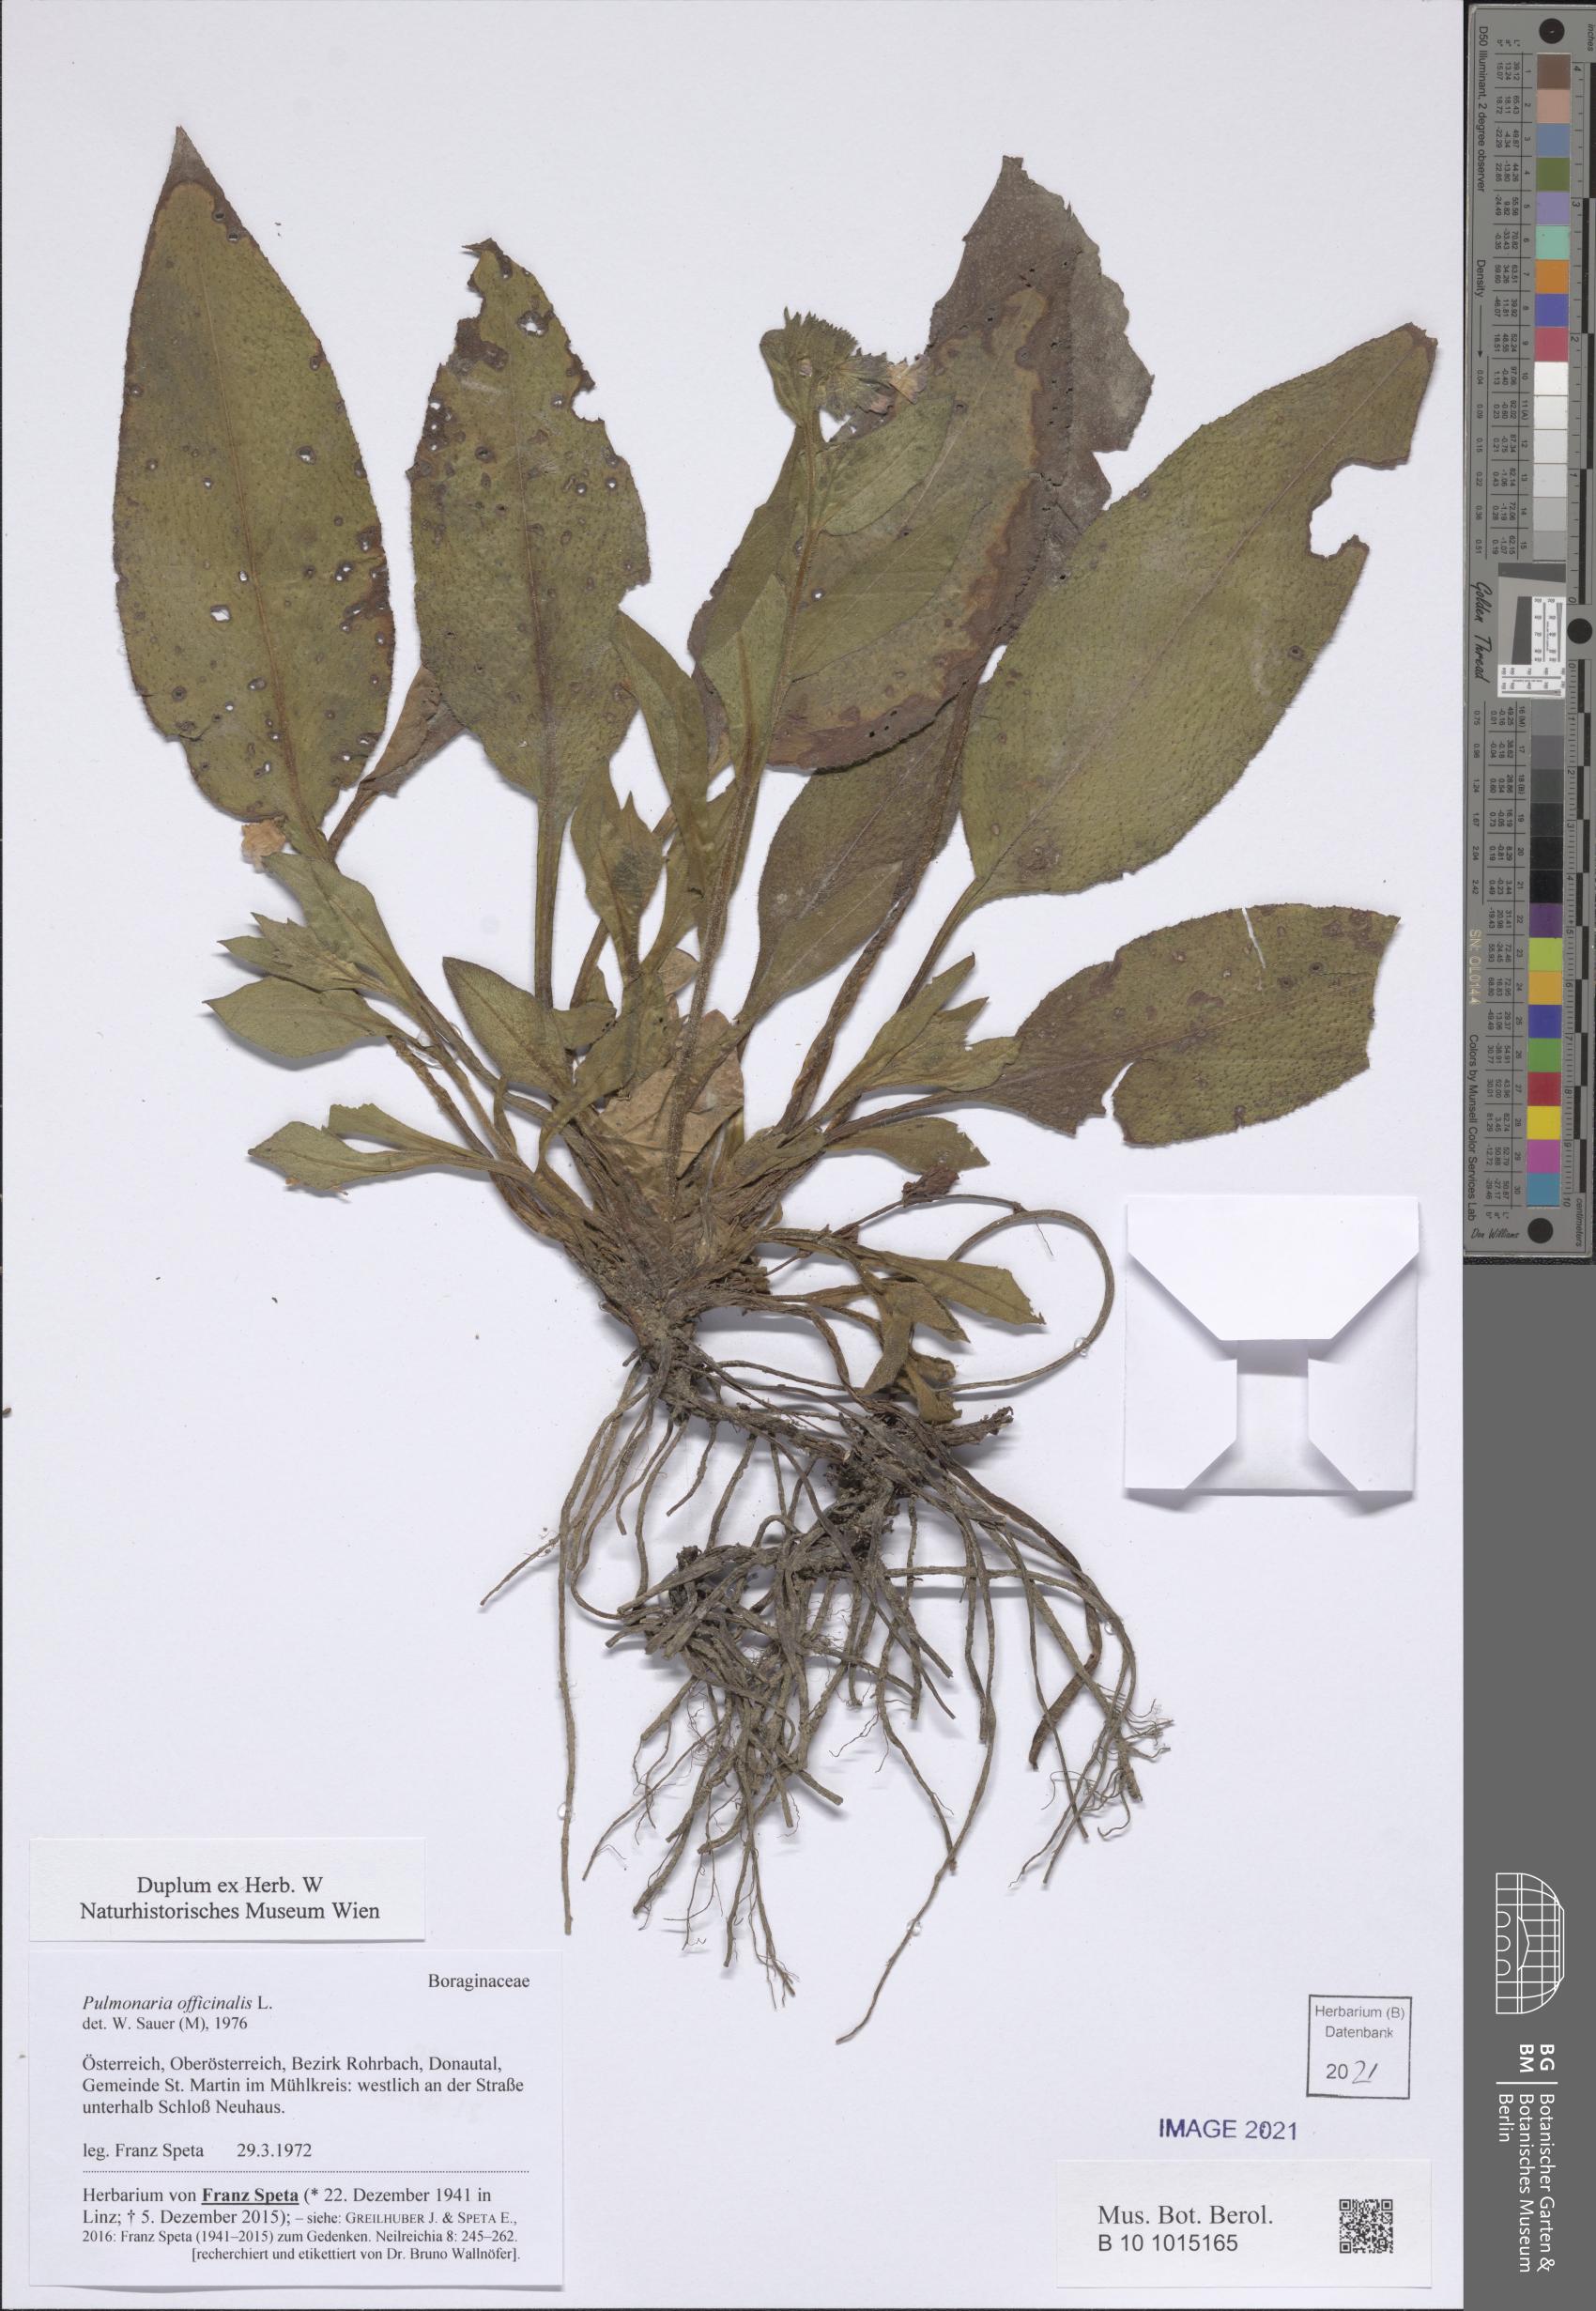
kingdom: Plantae
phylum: Tracheophyta
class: Magnoliopsida
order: Boraginales
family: Boraginaceae
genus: Pulmonaria
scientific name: Pulmonaria officinalis
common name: Lungwort
